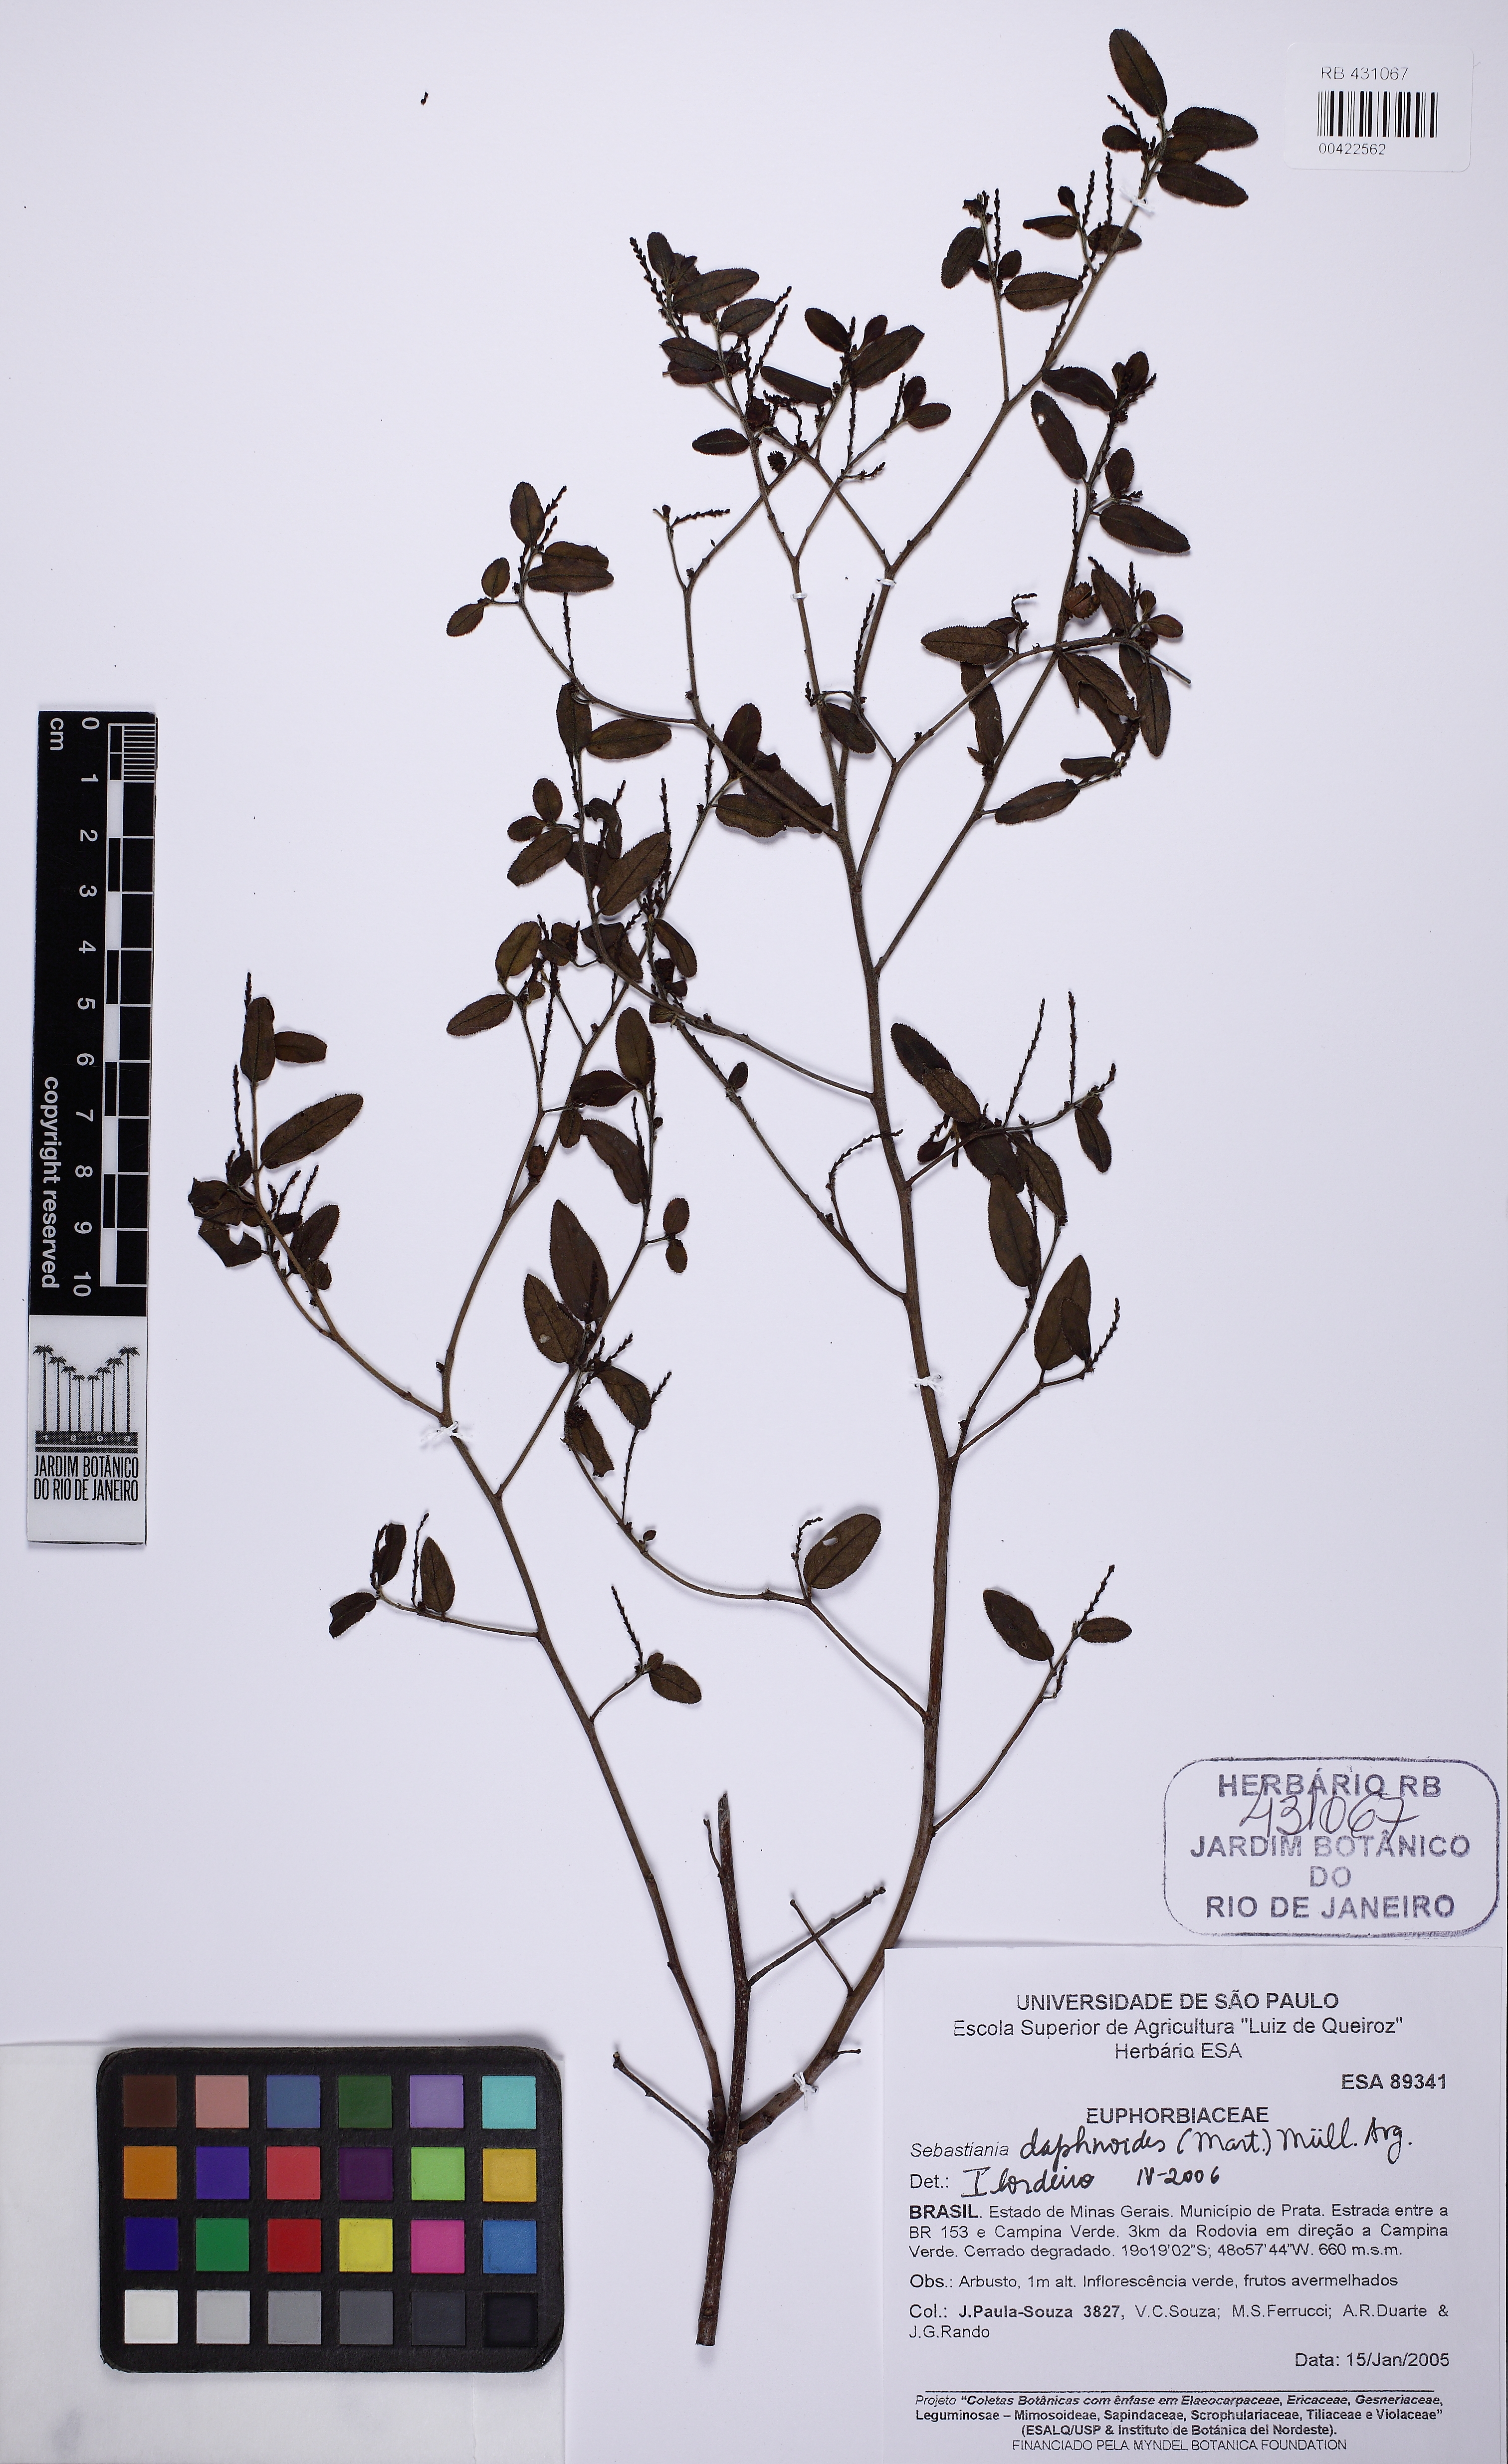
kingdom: Plantae
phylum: Tracheophyta
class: Magnoliopsida
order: Malpighiales
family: Euphorbiaceae
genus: Microstachys
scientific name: Microstachys serrulata
